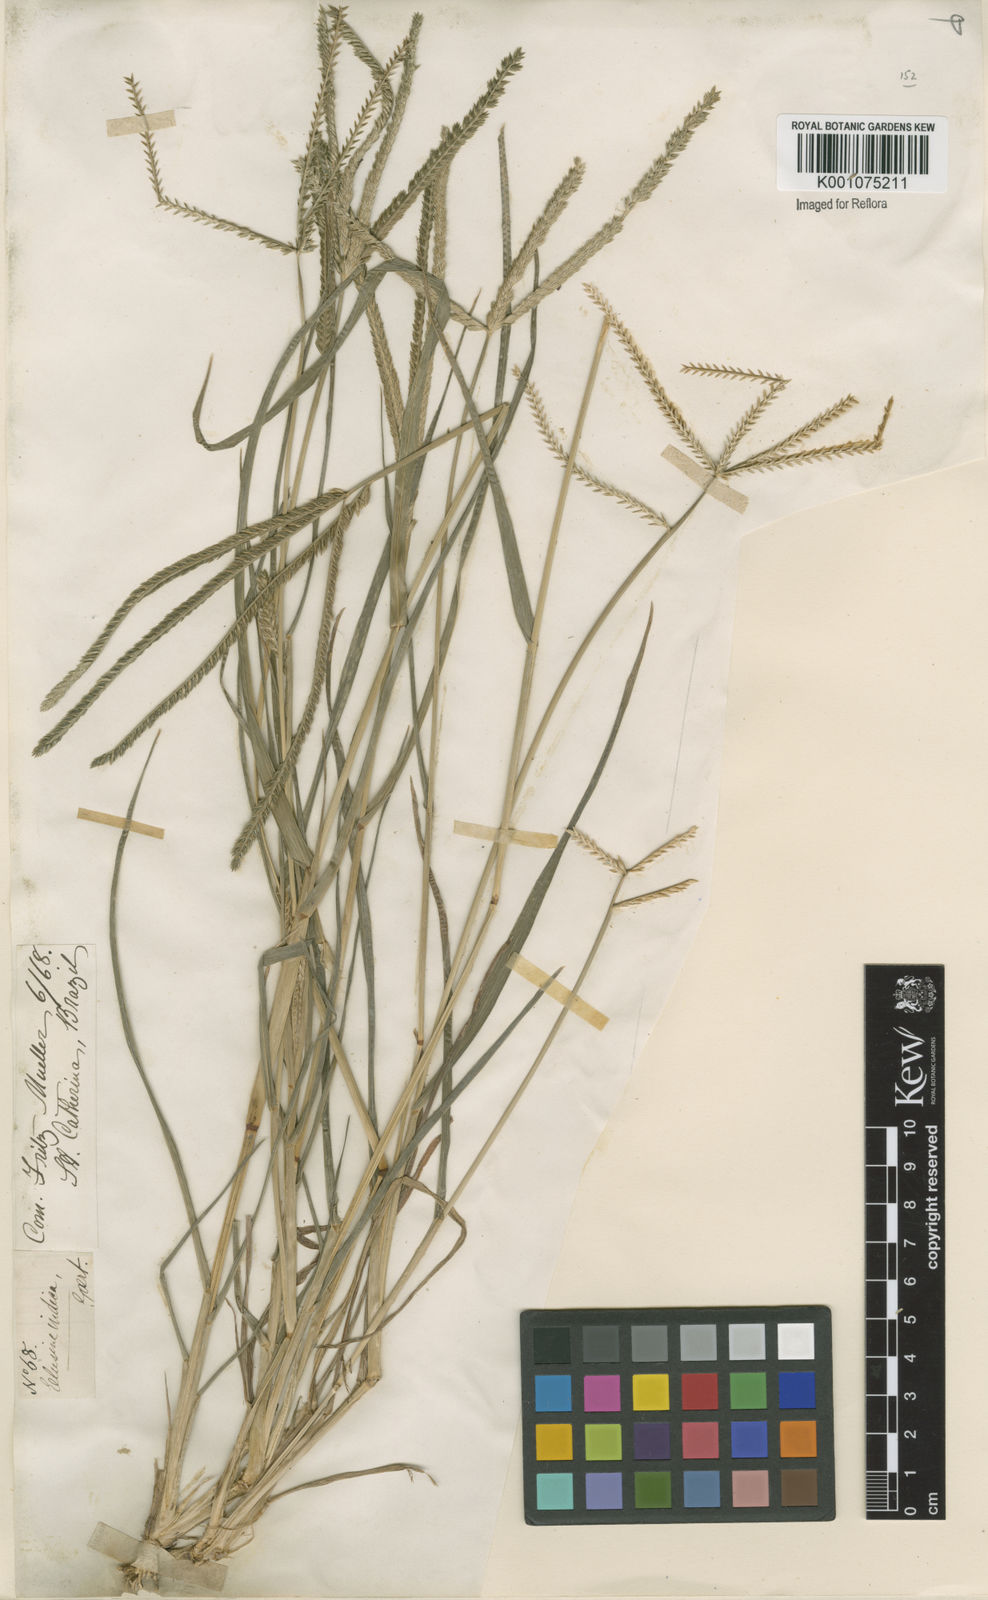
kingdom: Plantae
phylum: Tracheophyta
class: Liliopsida
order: Poales
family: Poaceae
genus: Eleusine
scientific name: Eleusine indica
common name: Yard-grass
